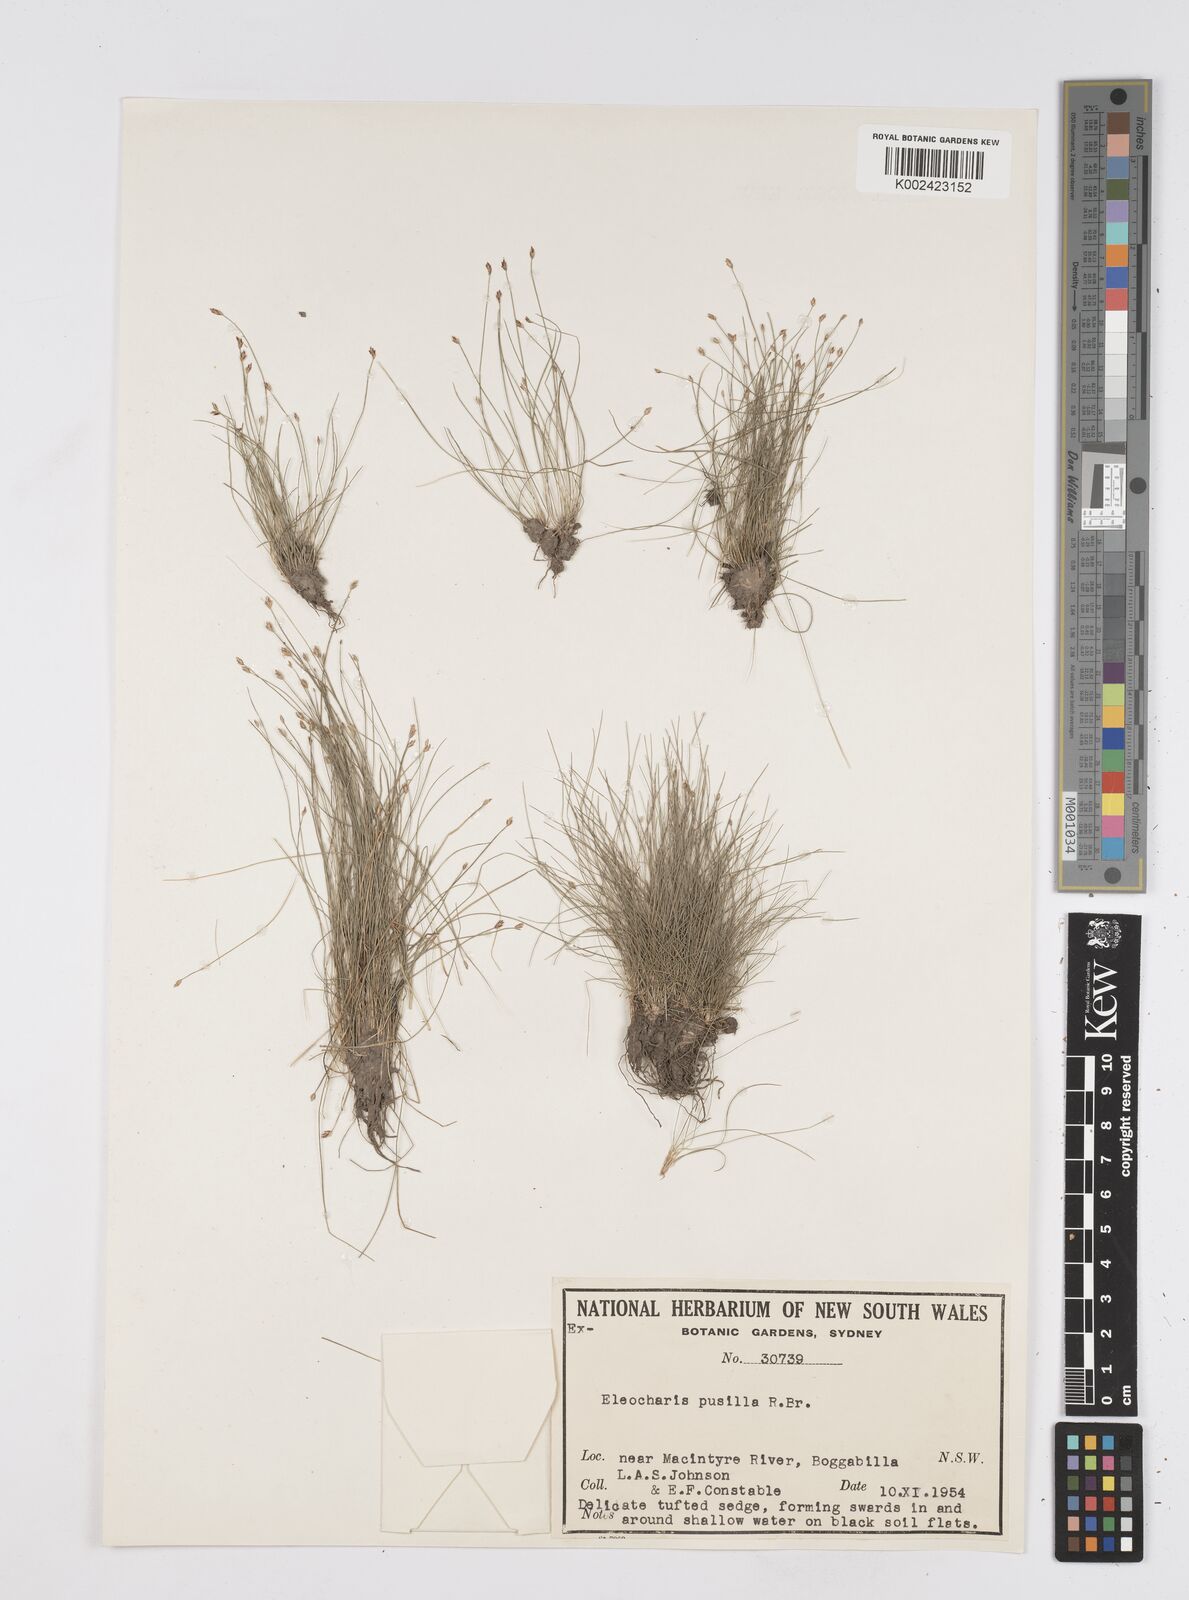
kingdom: Plantae
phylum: Tracheophyta
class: Liliopsida
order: Poales
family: Cyperaceae
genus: Eleocharis
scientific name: Eleocharis pusilla
